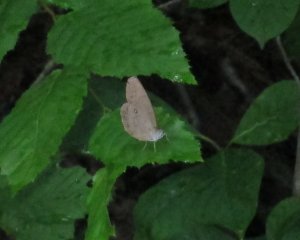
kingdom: Animalia
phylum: Arthropoda
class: Insecta
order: Lepidoptera
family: Nymphalidae
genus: Lethe
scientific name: Lethe eurydice
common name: Appalachian Eyed Brown
